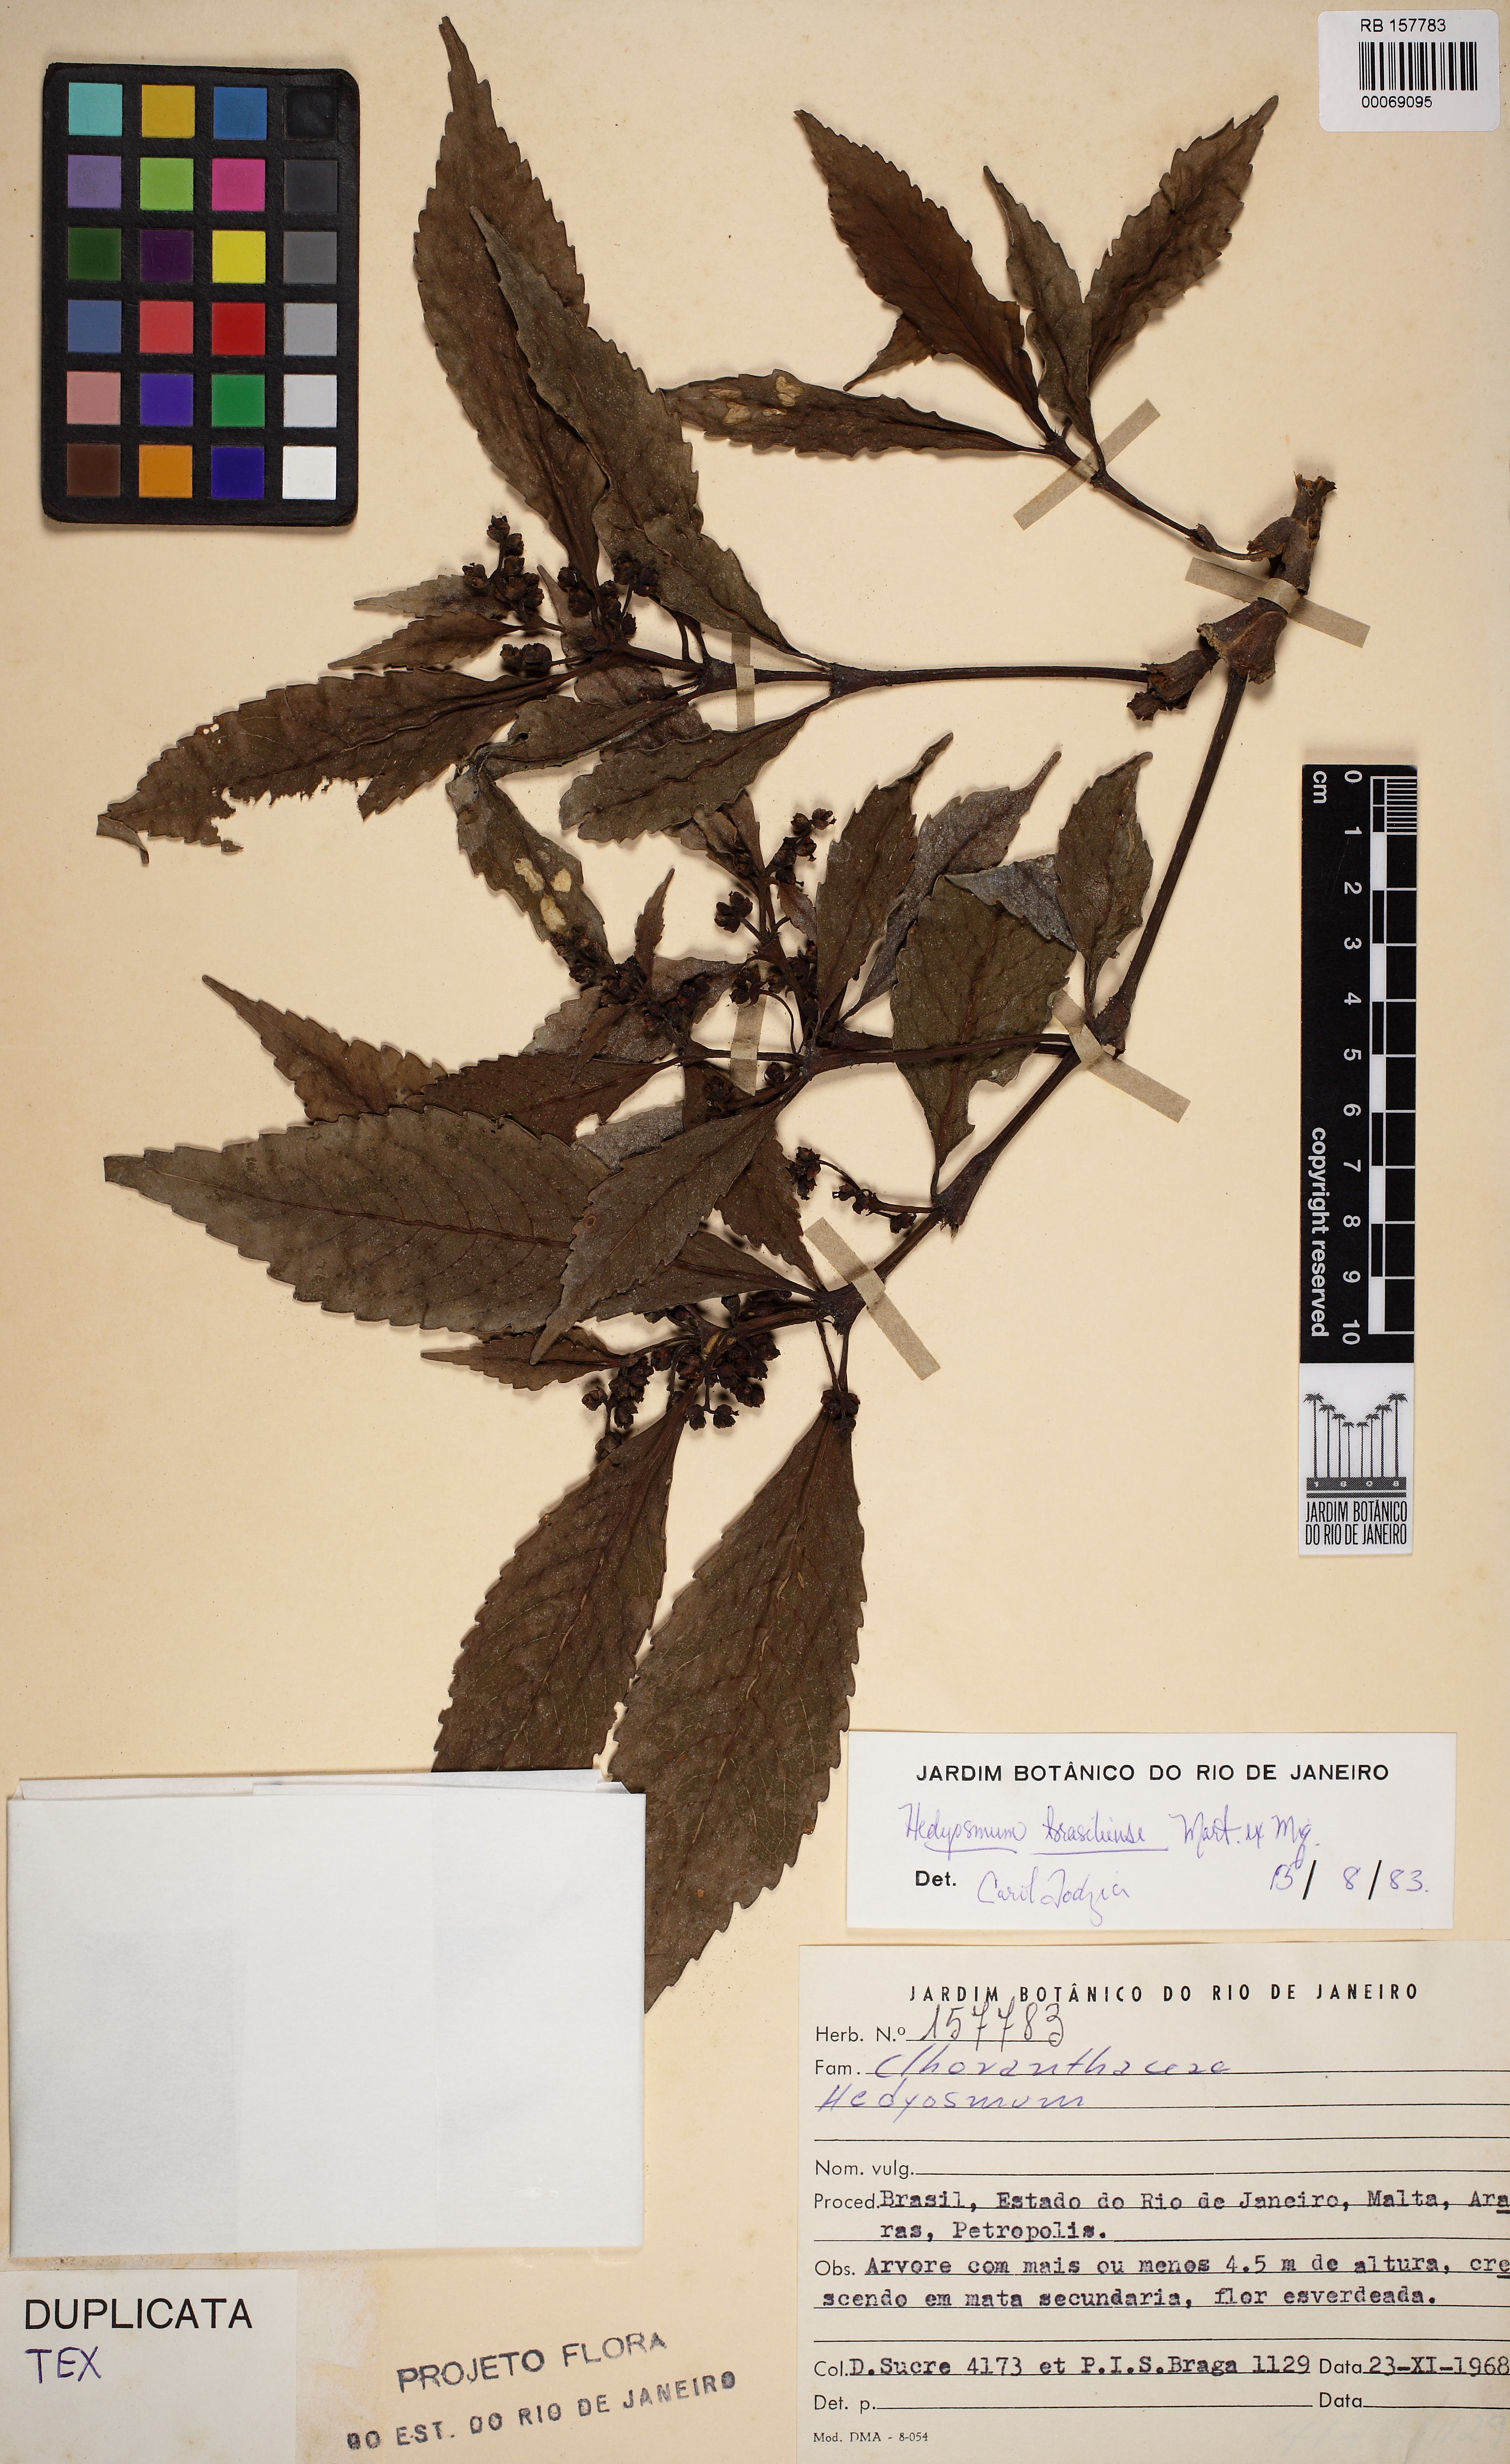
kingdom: Plantae
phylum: Tracheophyta
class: Magnoliopsida
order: Chloranthales
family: Chloranthaceae
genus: Hedyosmum
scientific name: Hedyosmum brasiliense
